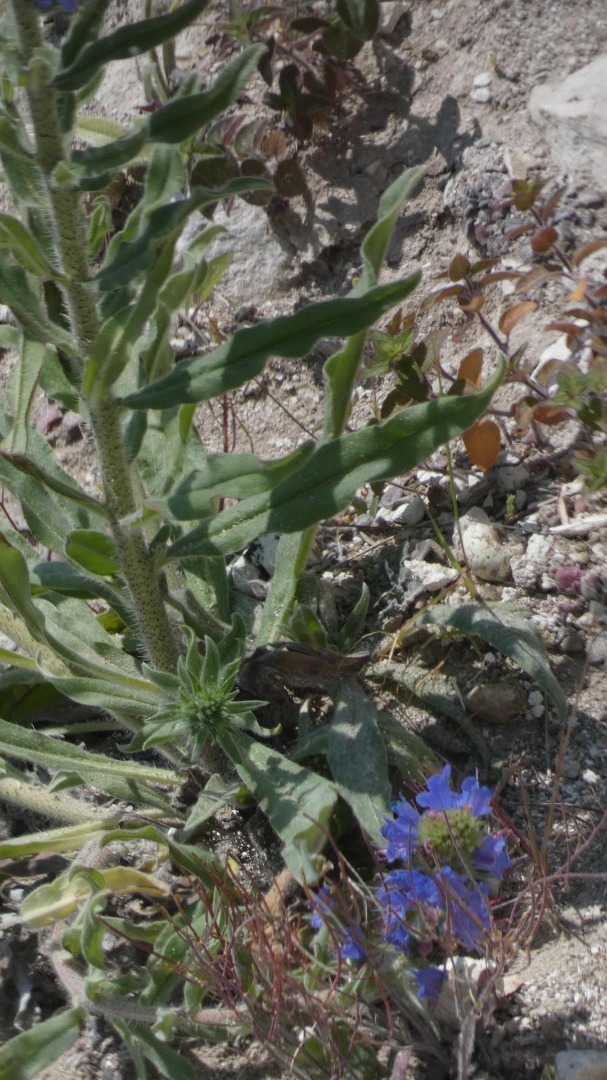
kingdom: Plantae
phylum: Tracheophyta
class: Magnoliopsida
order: Boraginales
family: Boraginaceae
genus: Echium
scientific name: Echium vulgare
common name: Slangehoved
